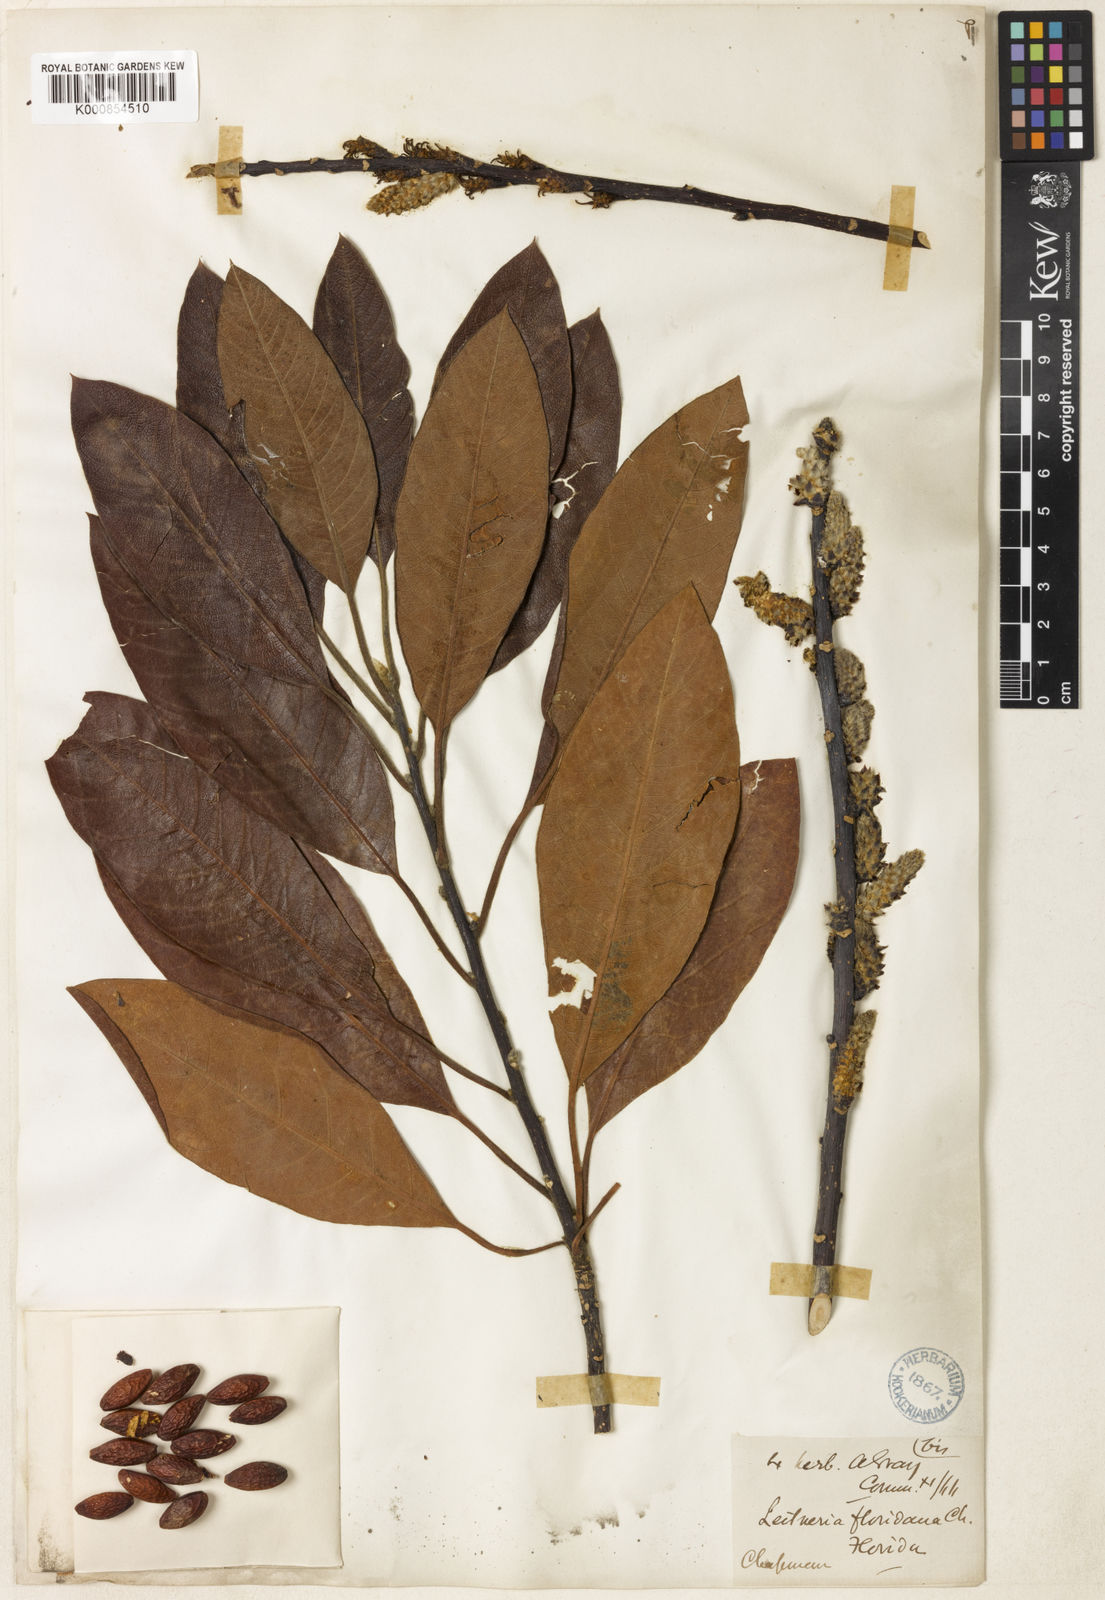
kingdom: Plantae
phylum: Tracheophyta
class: Magnoliopsida
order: Sapindales
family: Simaroubaceae
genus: Leitneria
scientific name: Leitneria floridana
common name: Corkwood
